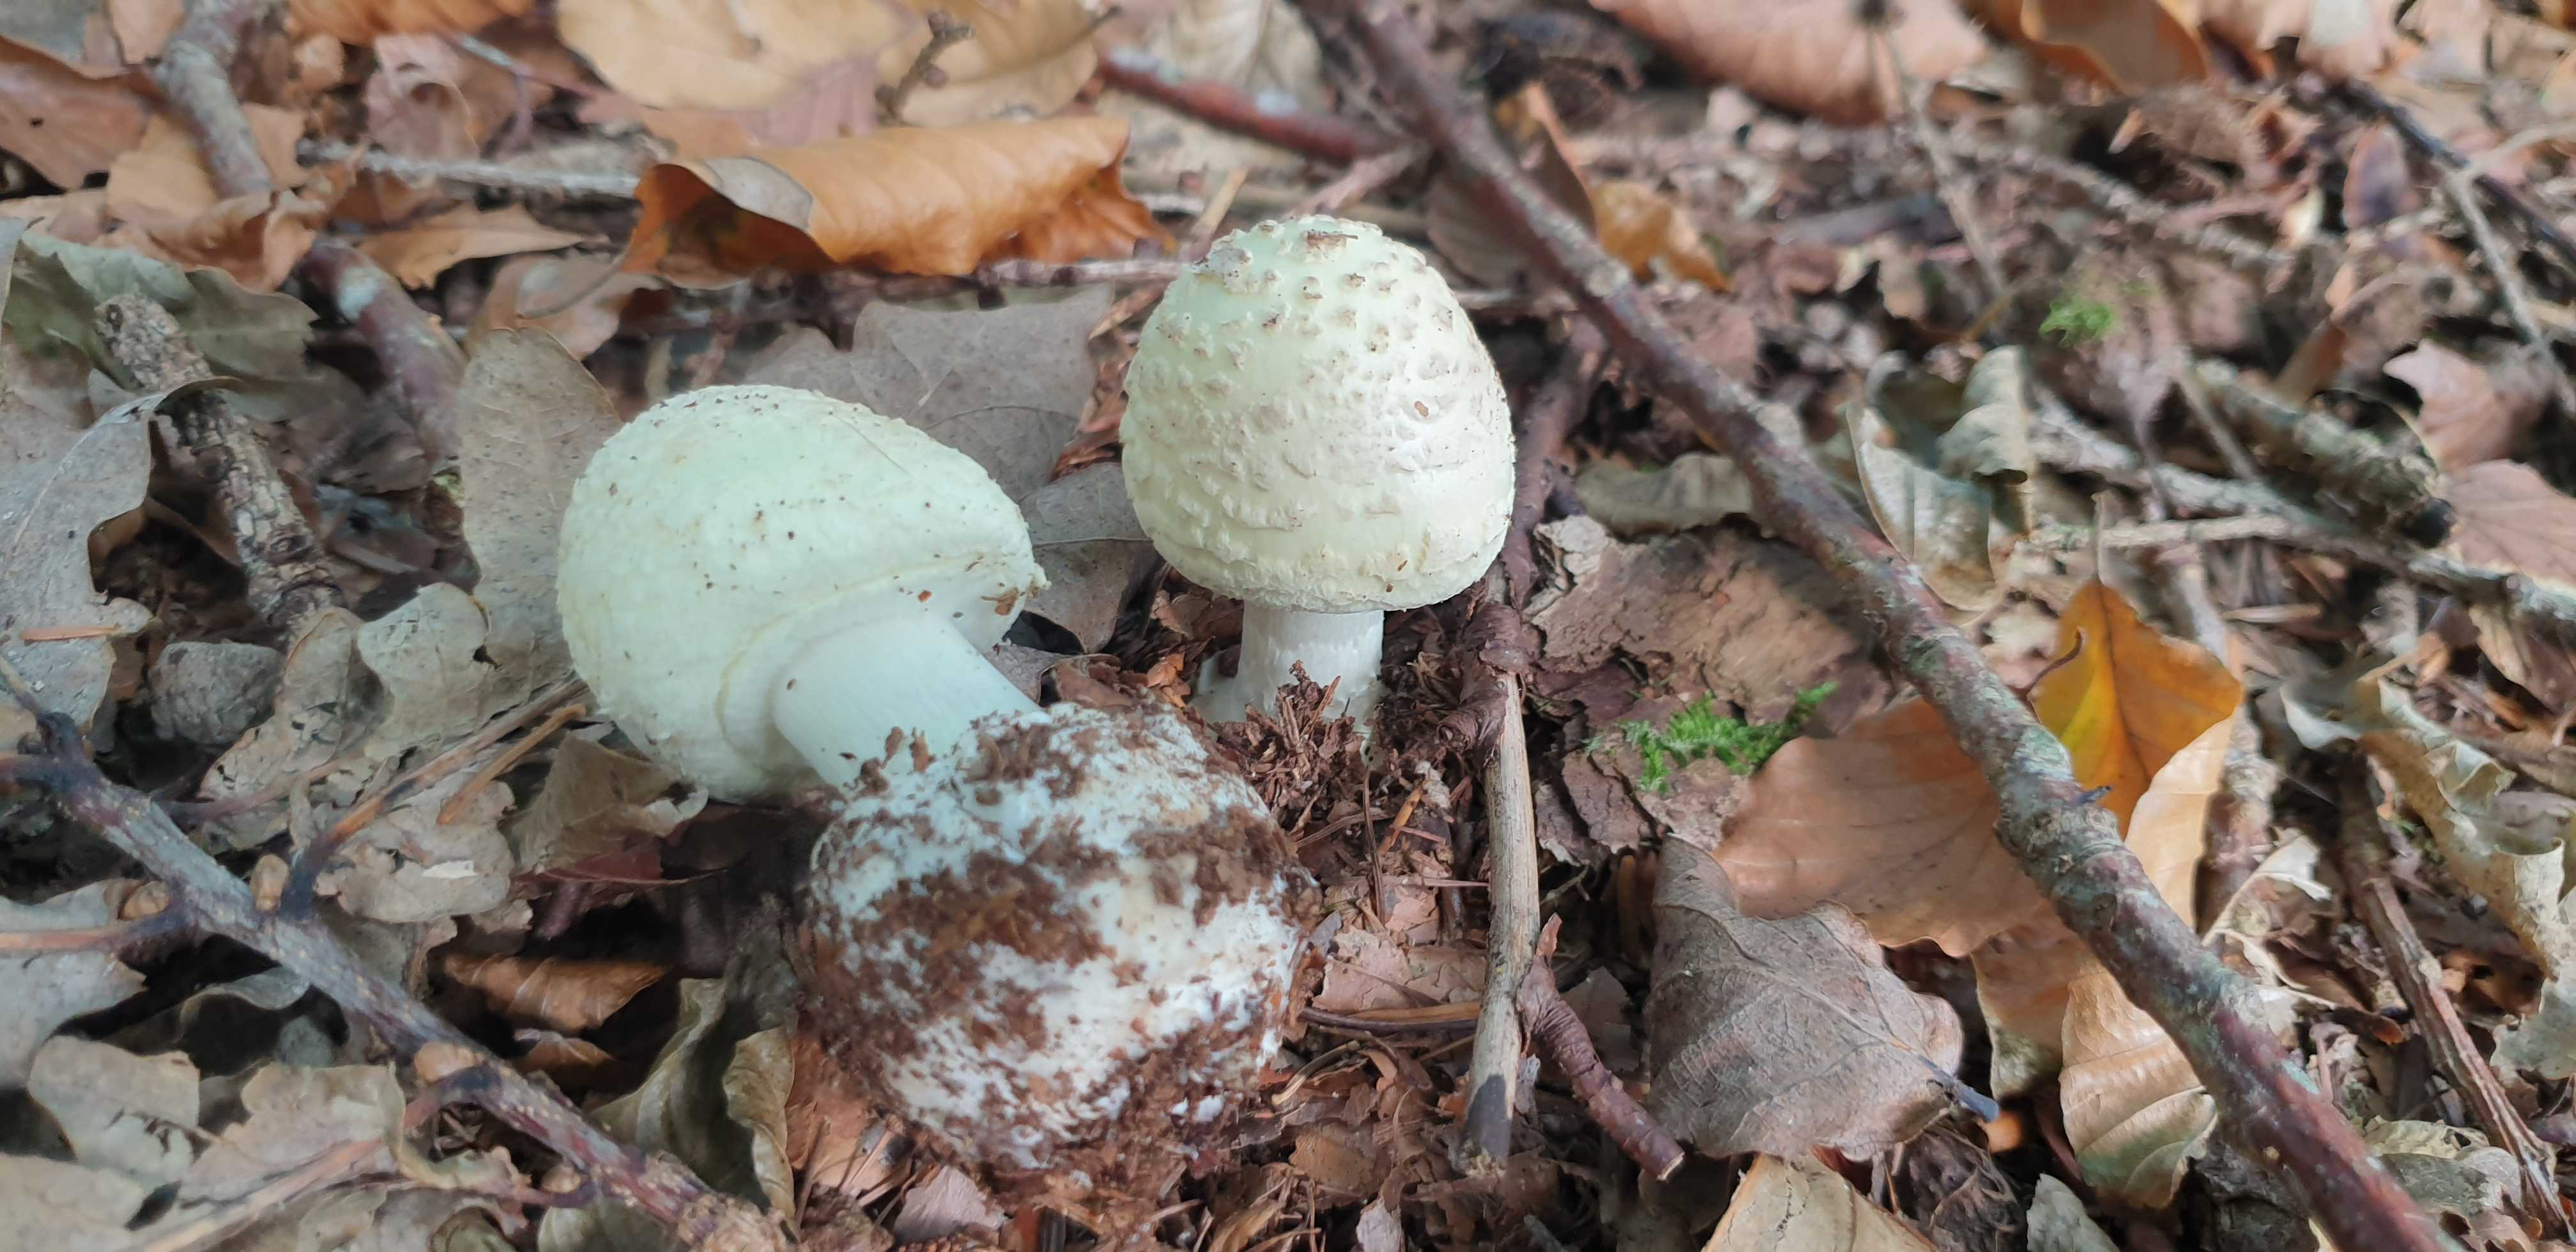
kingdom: Fungi
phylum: Basidiomycota
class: Agaricomycetes
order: Agaricales
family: Amanitaceae
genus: Amanita
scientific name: Amanita citrina
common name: kugleknoldet fluesvamp
